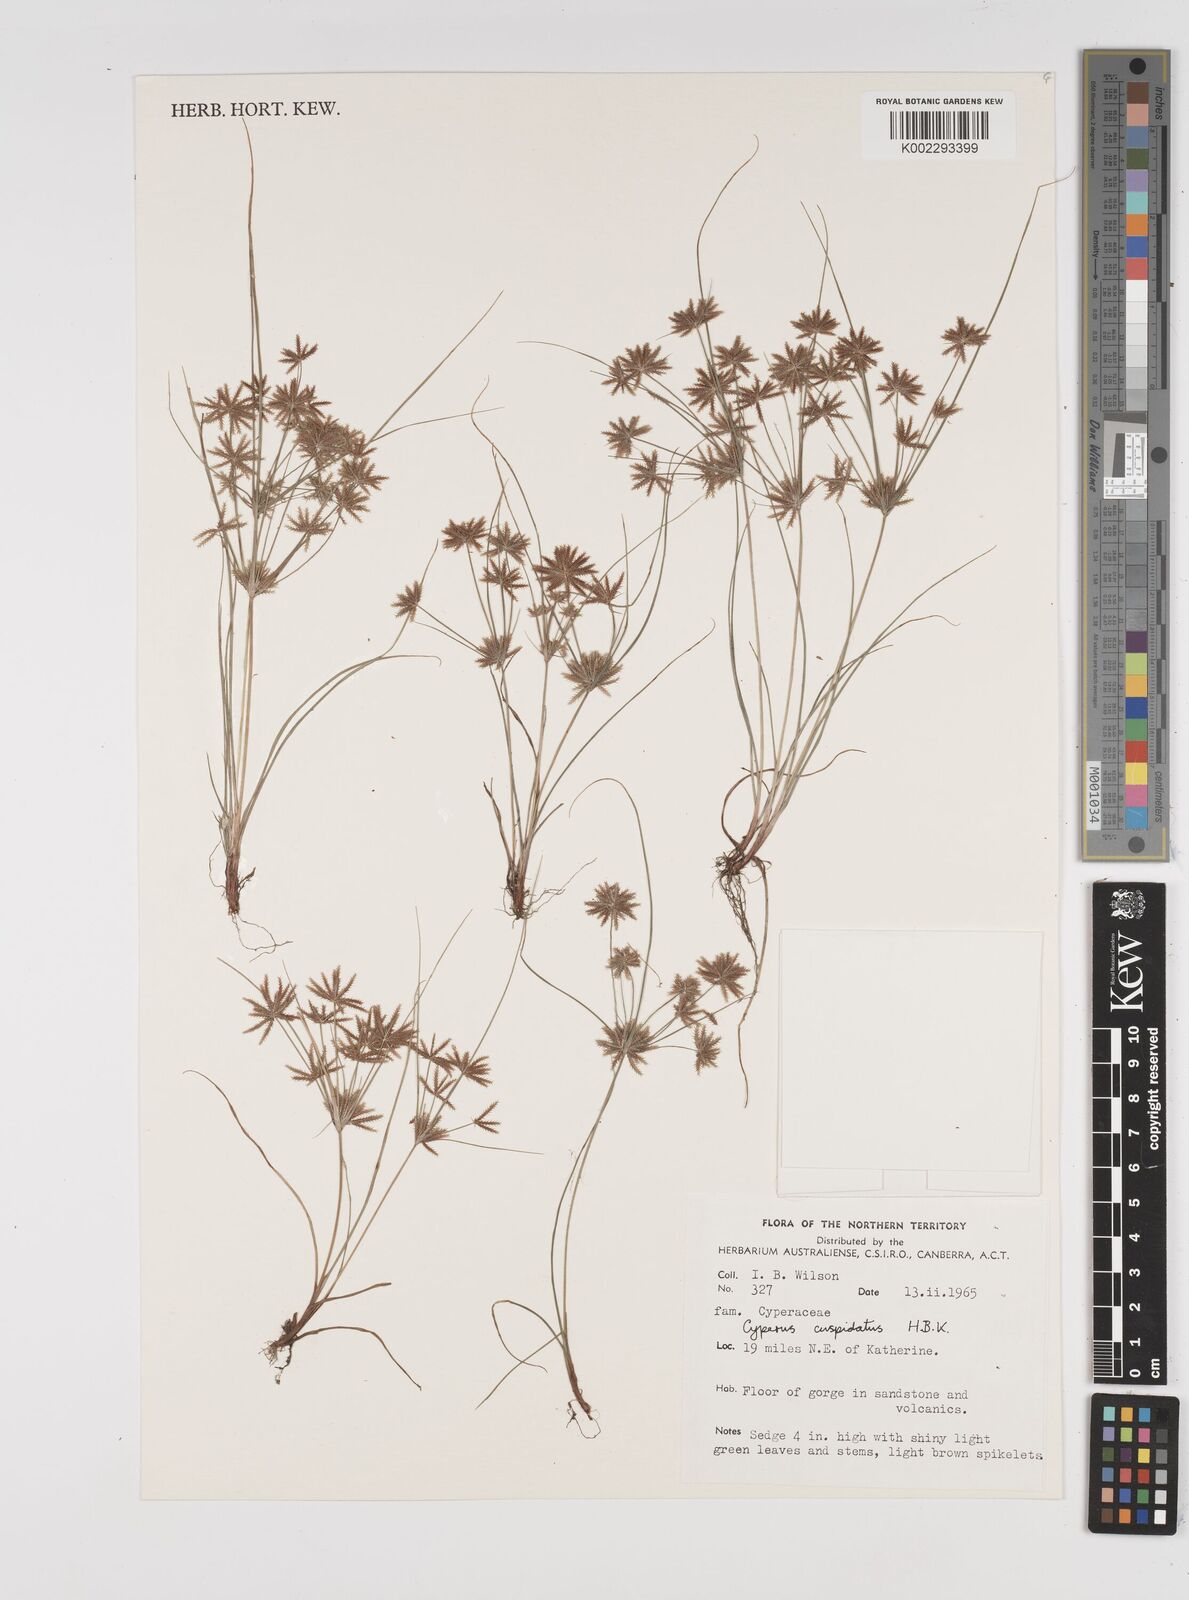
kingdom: Plantae
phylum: Tracheophyta
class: Liliopsida
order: Poales
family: Cyperaceae
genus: Cyperus
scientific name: Cyperus cuspidatus
